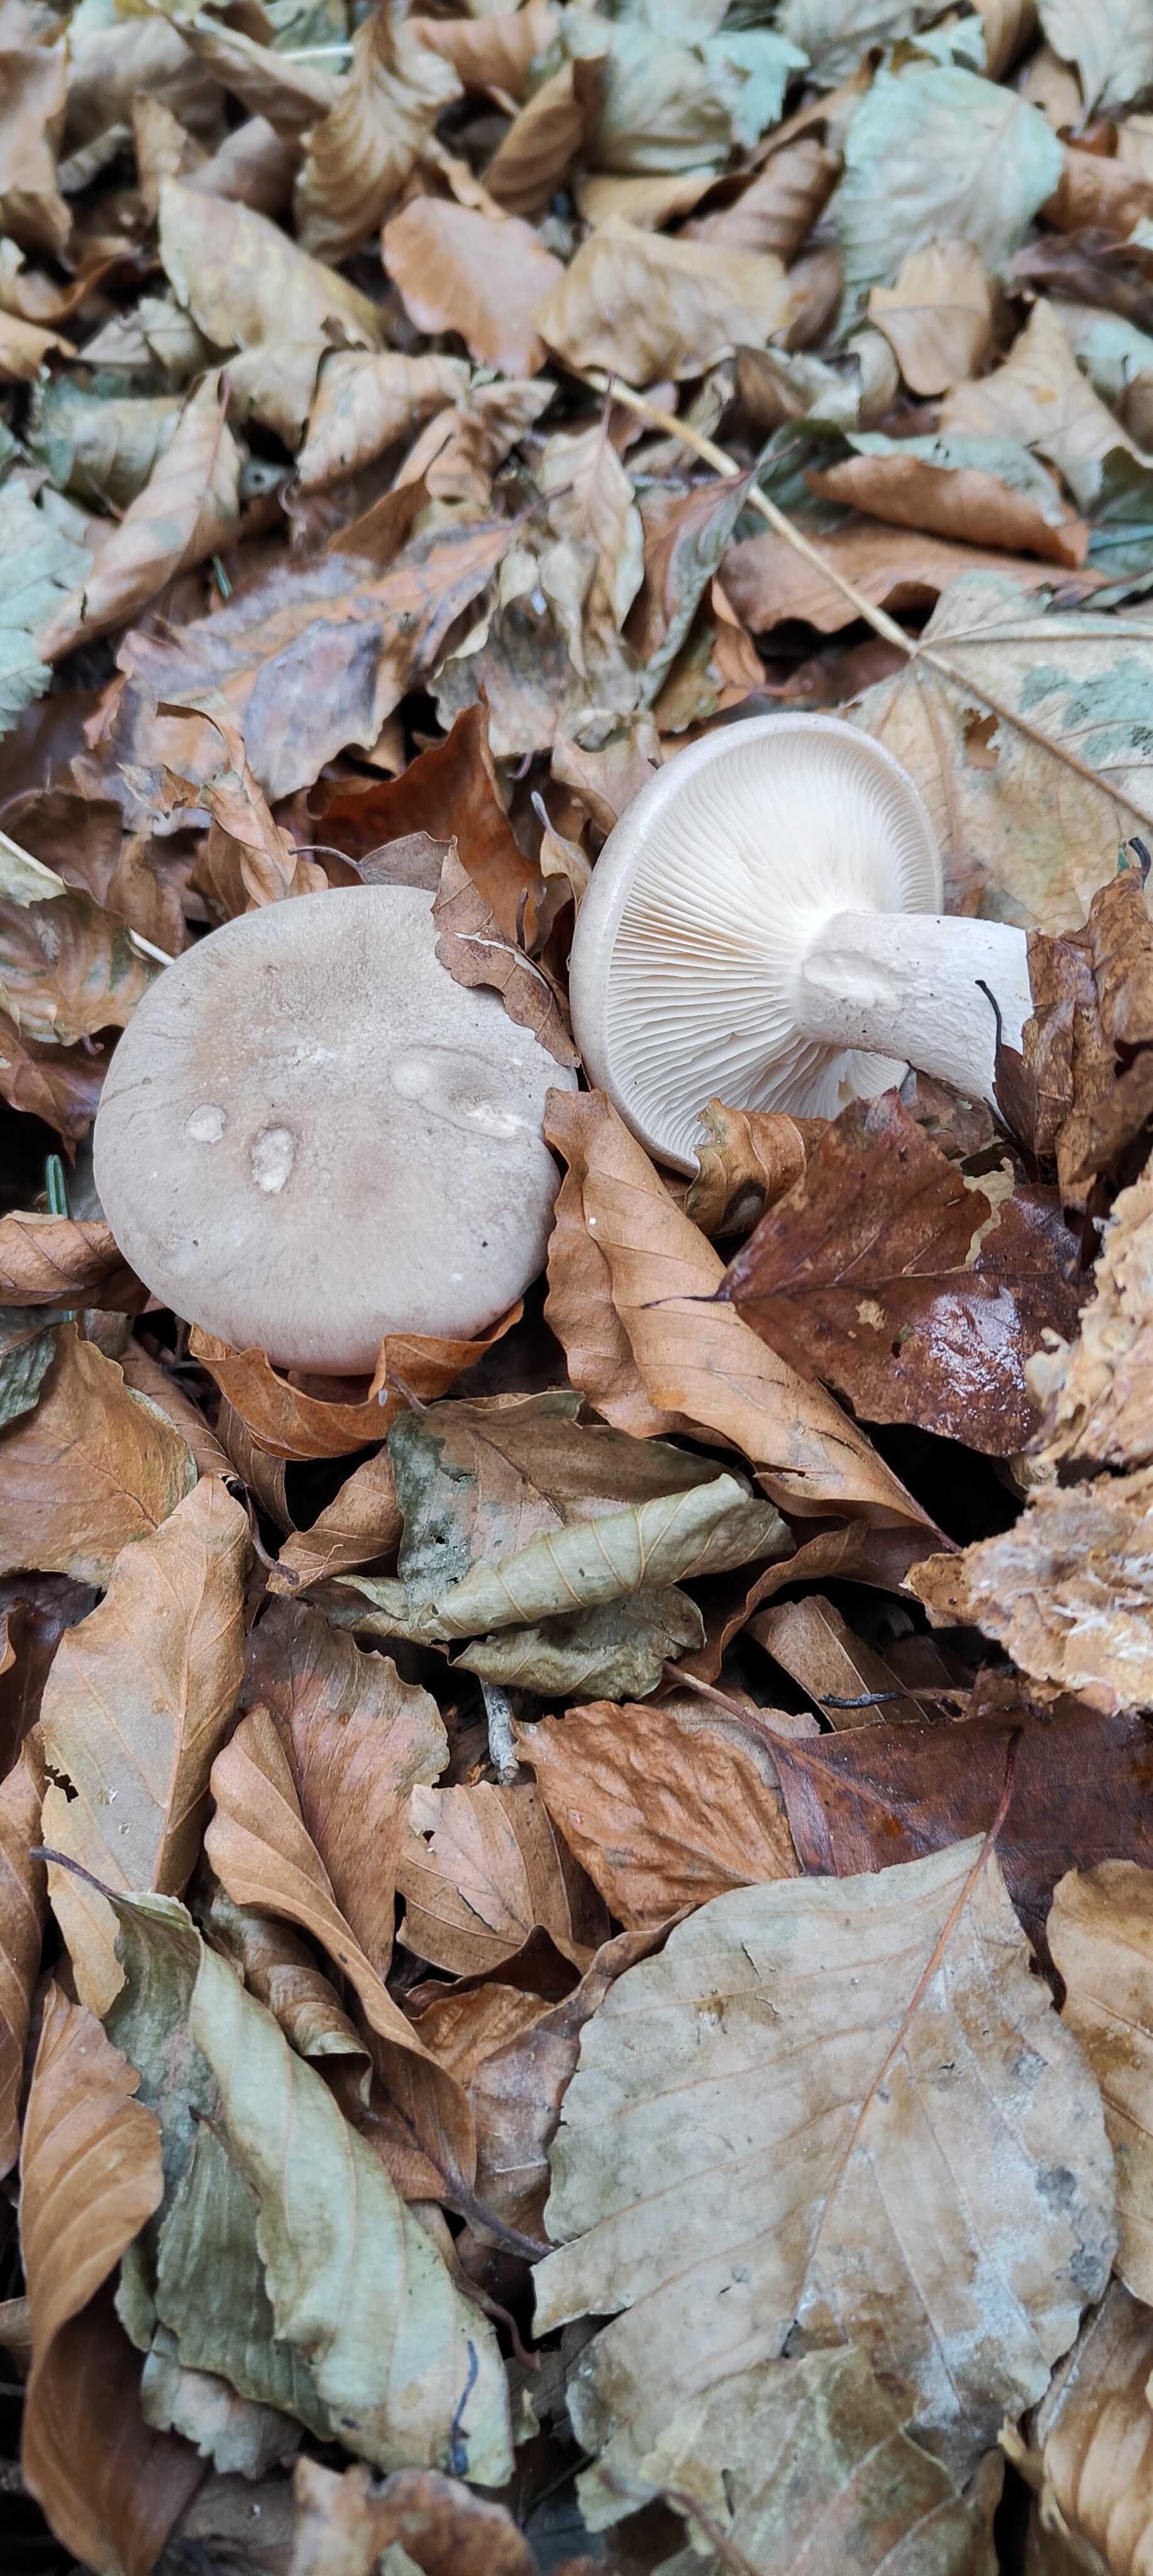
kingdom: Fungi
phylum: Basidiomycota
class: Agaricomycetes
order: Agaricales
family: Tricholomataceae
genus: Clitocybe
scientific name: Clitocybe nebularis
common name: tåge-tragthat
